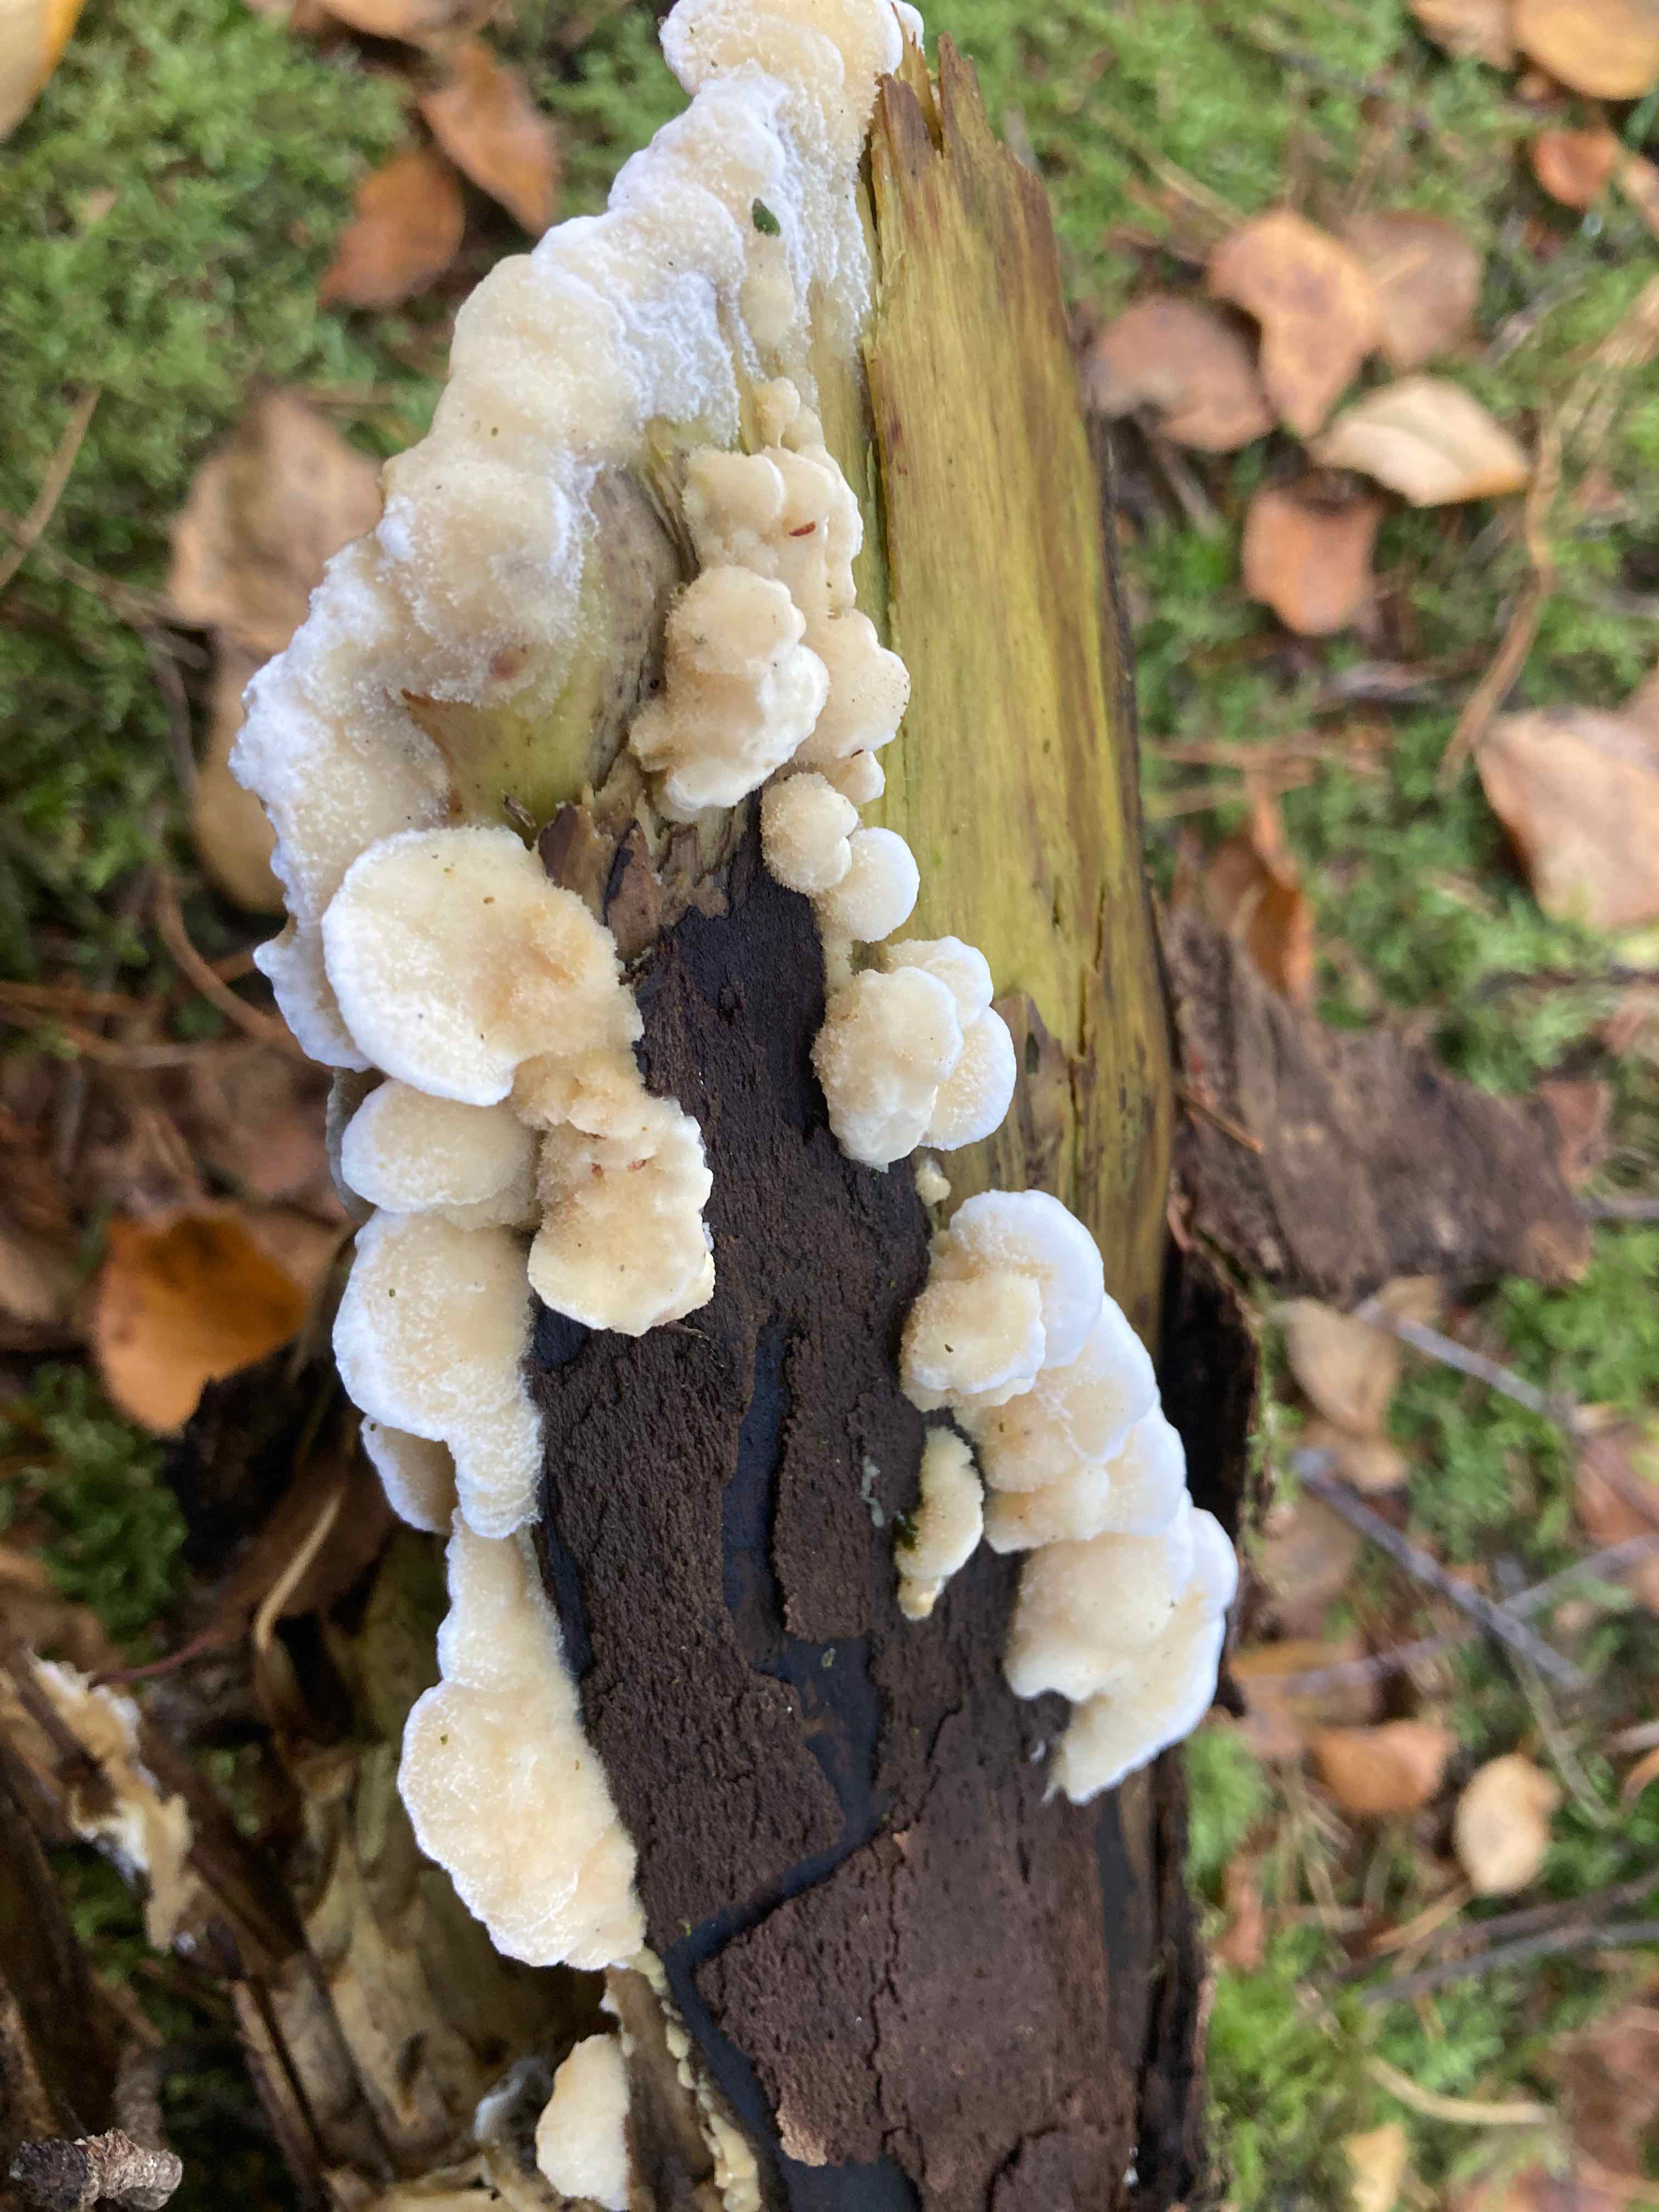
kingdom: Fungi
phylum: Basidiomycota
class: Agaricomycetes
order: Polyporales
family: Irpicaceae
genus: Vitreoporus
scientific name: Vitreoporus dichrous
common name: tofarvet foldporesvamp
